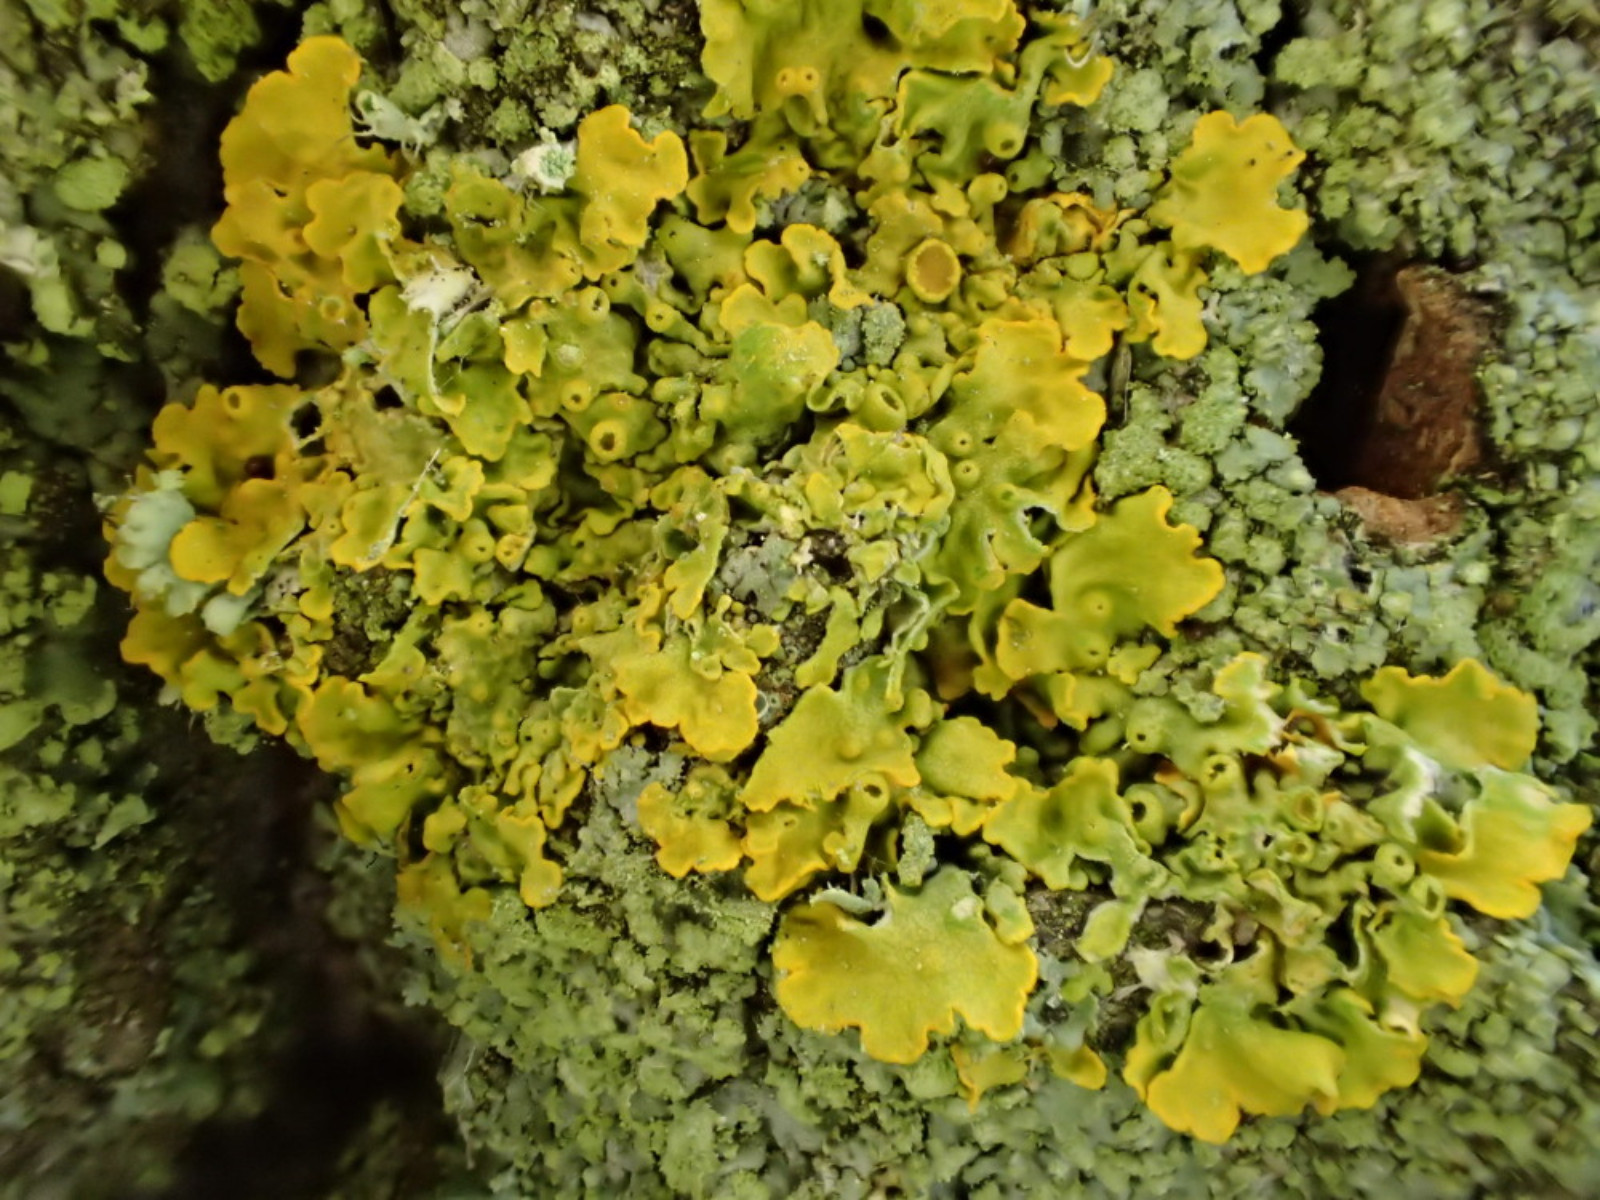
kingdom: Fungi
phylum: Ascomycota
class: Lecanoromycetes
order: Teloschistales
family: Teloschistaceae
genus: Xanthoria
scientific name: Xanthoria parietina
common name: almindelig væggelav
